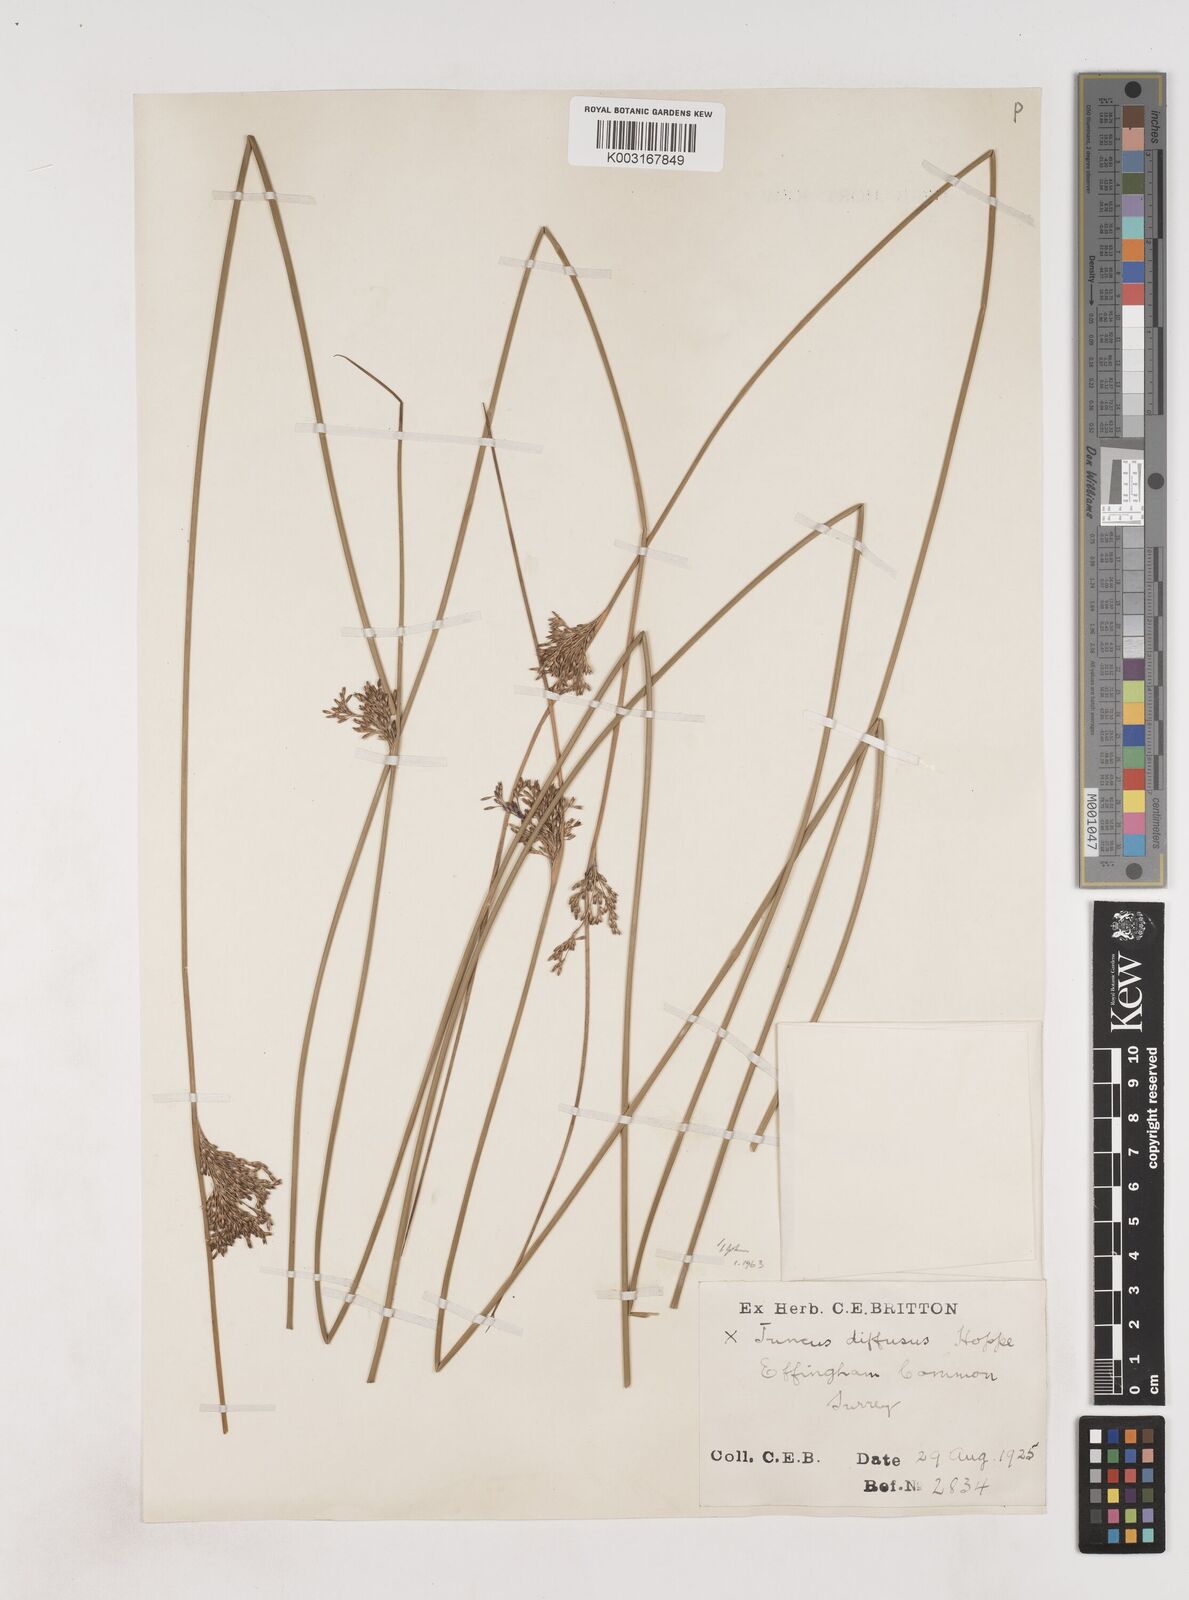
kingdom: Plantae
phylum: Tracheophyta
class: Liliopsida
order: Poales
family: Juncaceae
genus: Juncus
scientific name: Juncus effusus
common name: Soft rush
